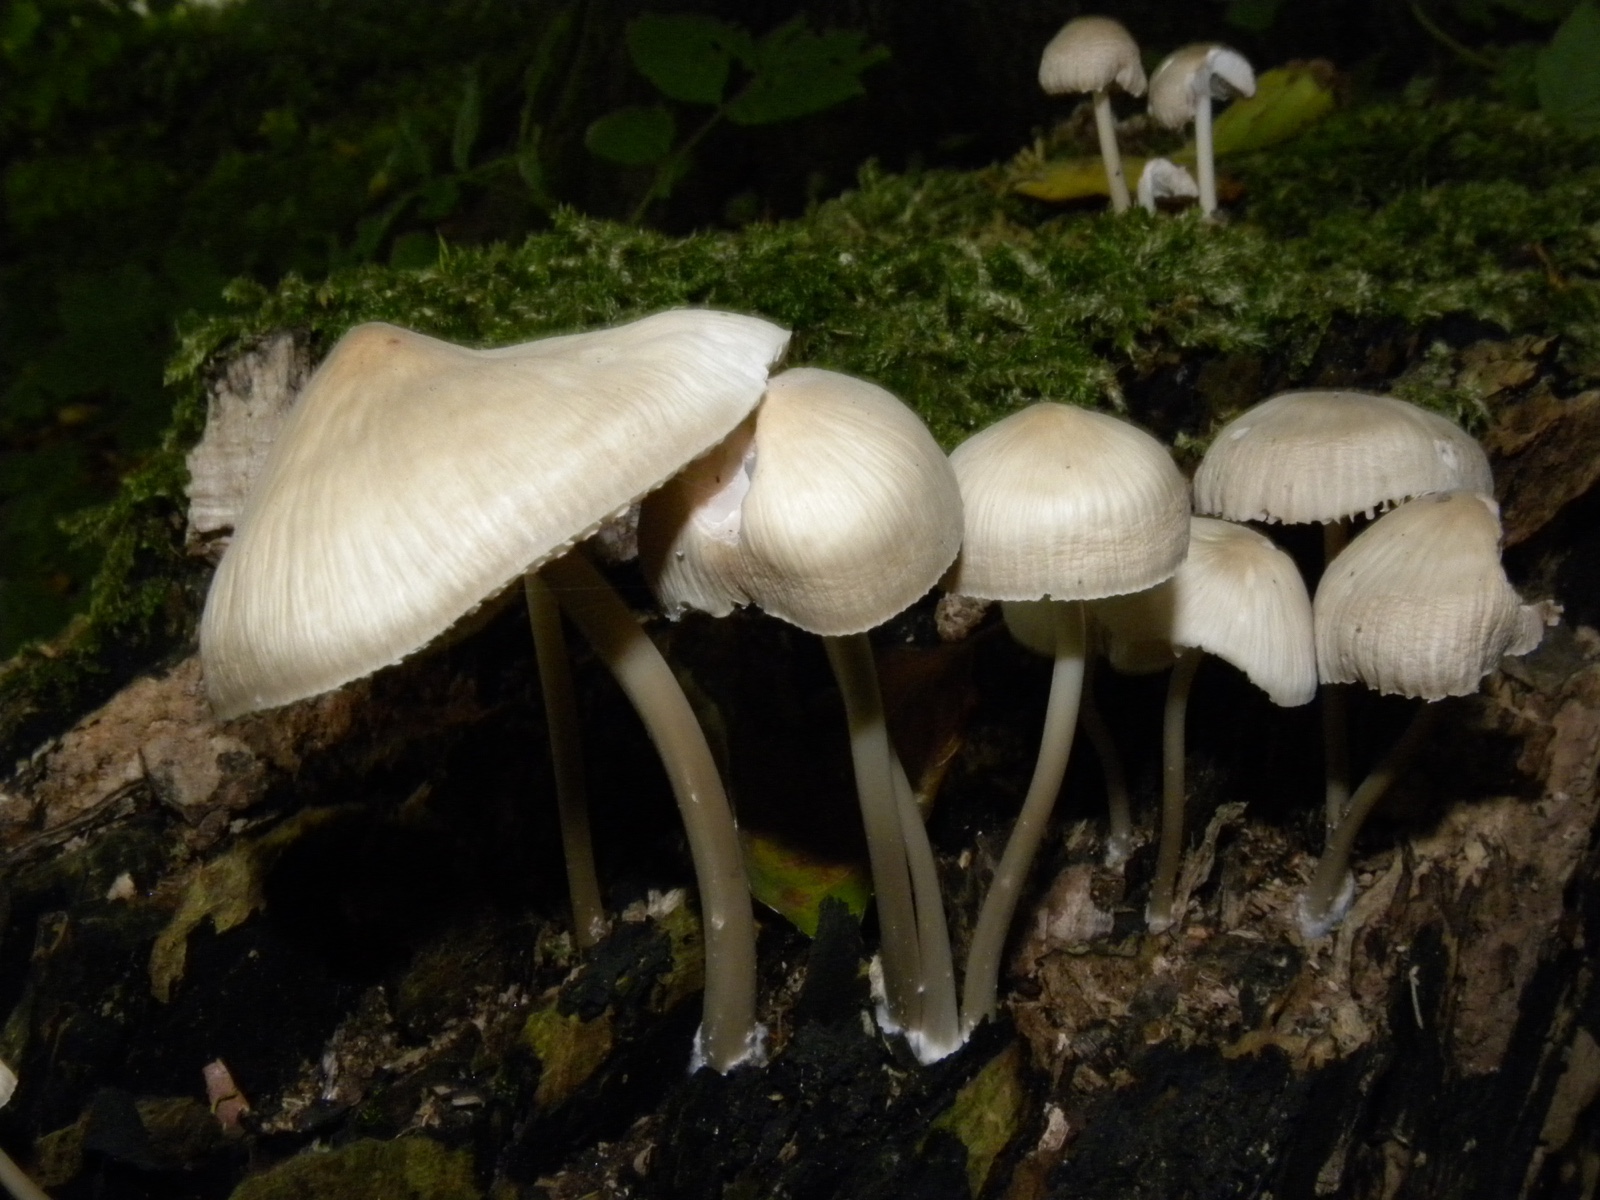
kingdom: Fungi
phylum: Basidiomycota
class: Agaricomycetes
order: Agaricales
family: Mycenaceae
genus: Mycena
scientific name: Mycena galericulata
